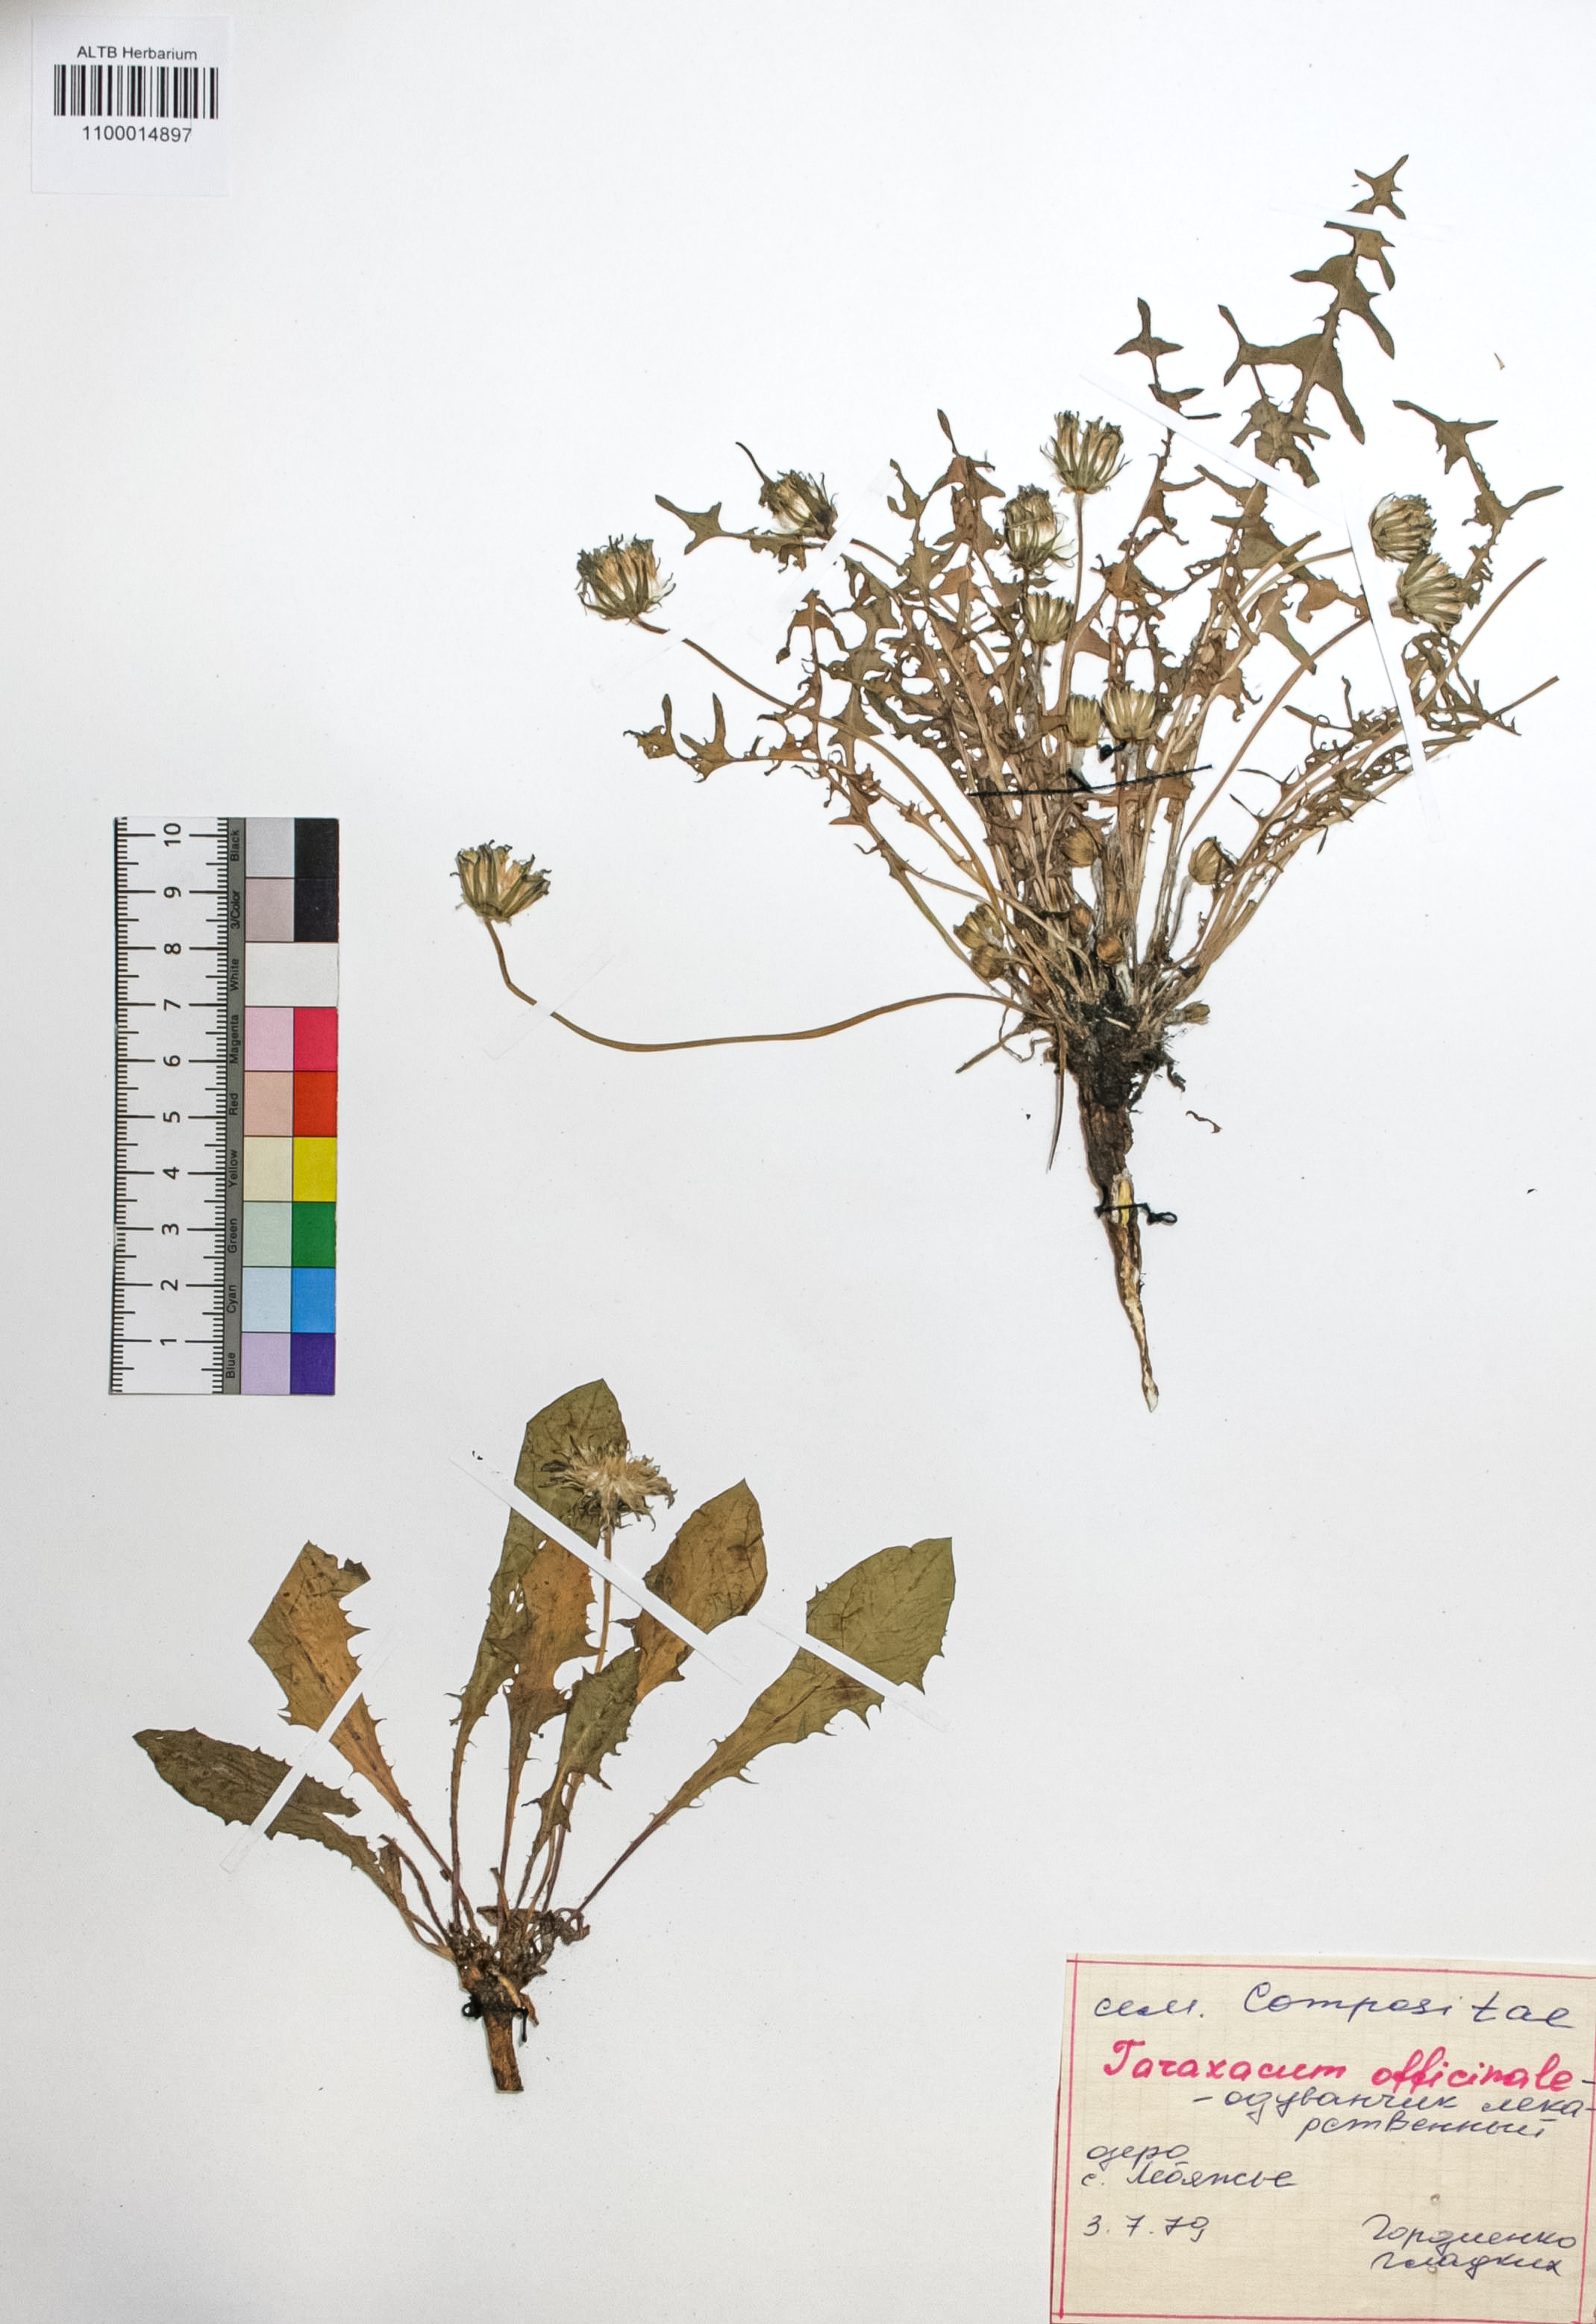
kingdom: Plantae
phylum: Tracheophyta
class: Magnoliopsida
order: Asterales
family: Asteraceae
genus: Taraxacum
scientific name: Taraxacum officinale
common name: Common dandelion
